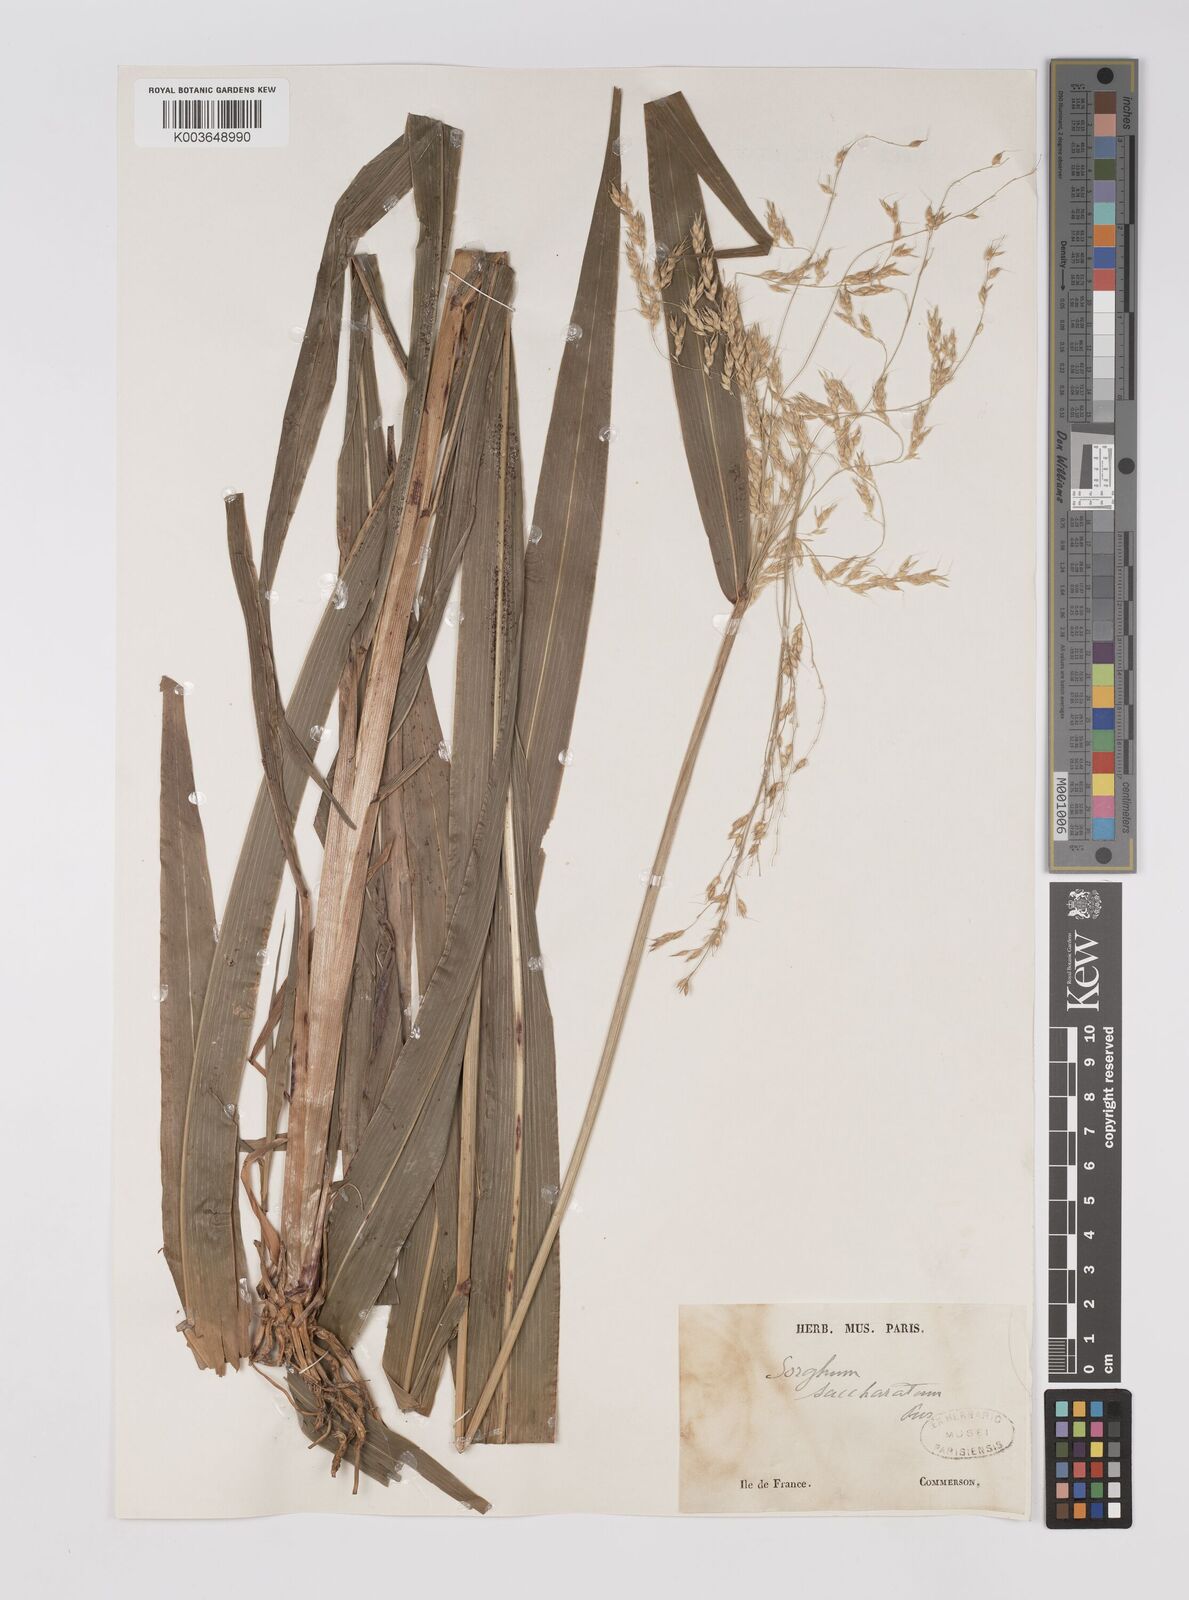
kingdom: Plantae
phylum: Tracheophyta
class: Liliopsida
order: Poales
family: Poaceae
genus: Sorghum
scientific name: Sorghum arundinaceum
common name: Sorghum
